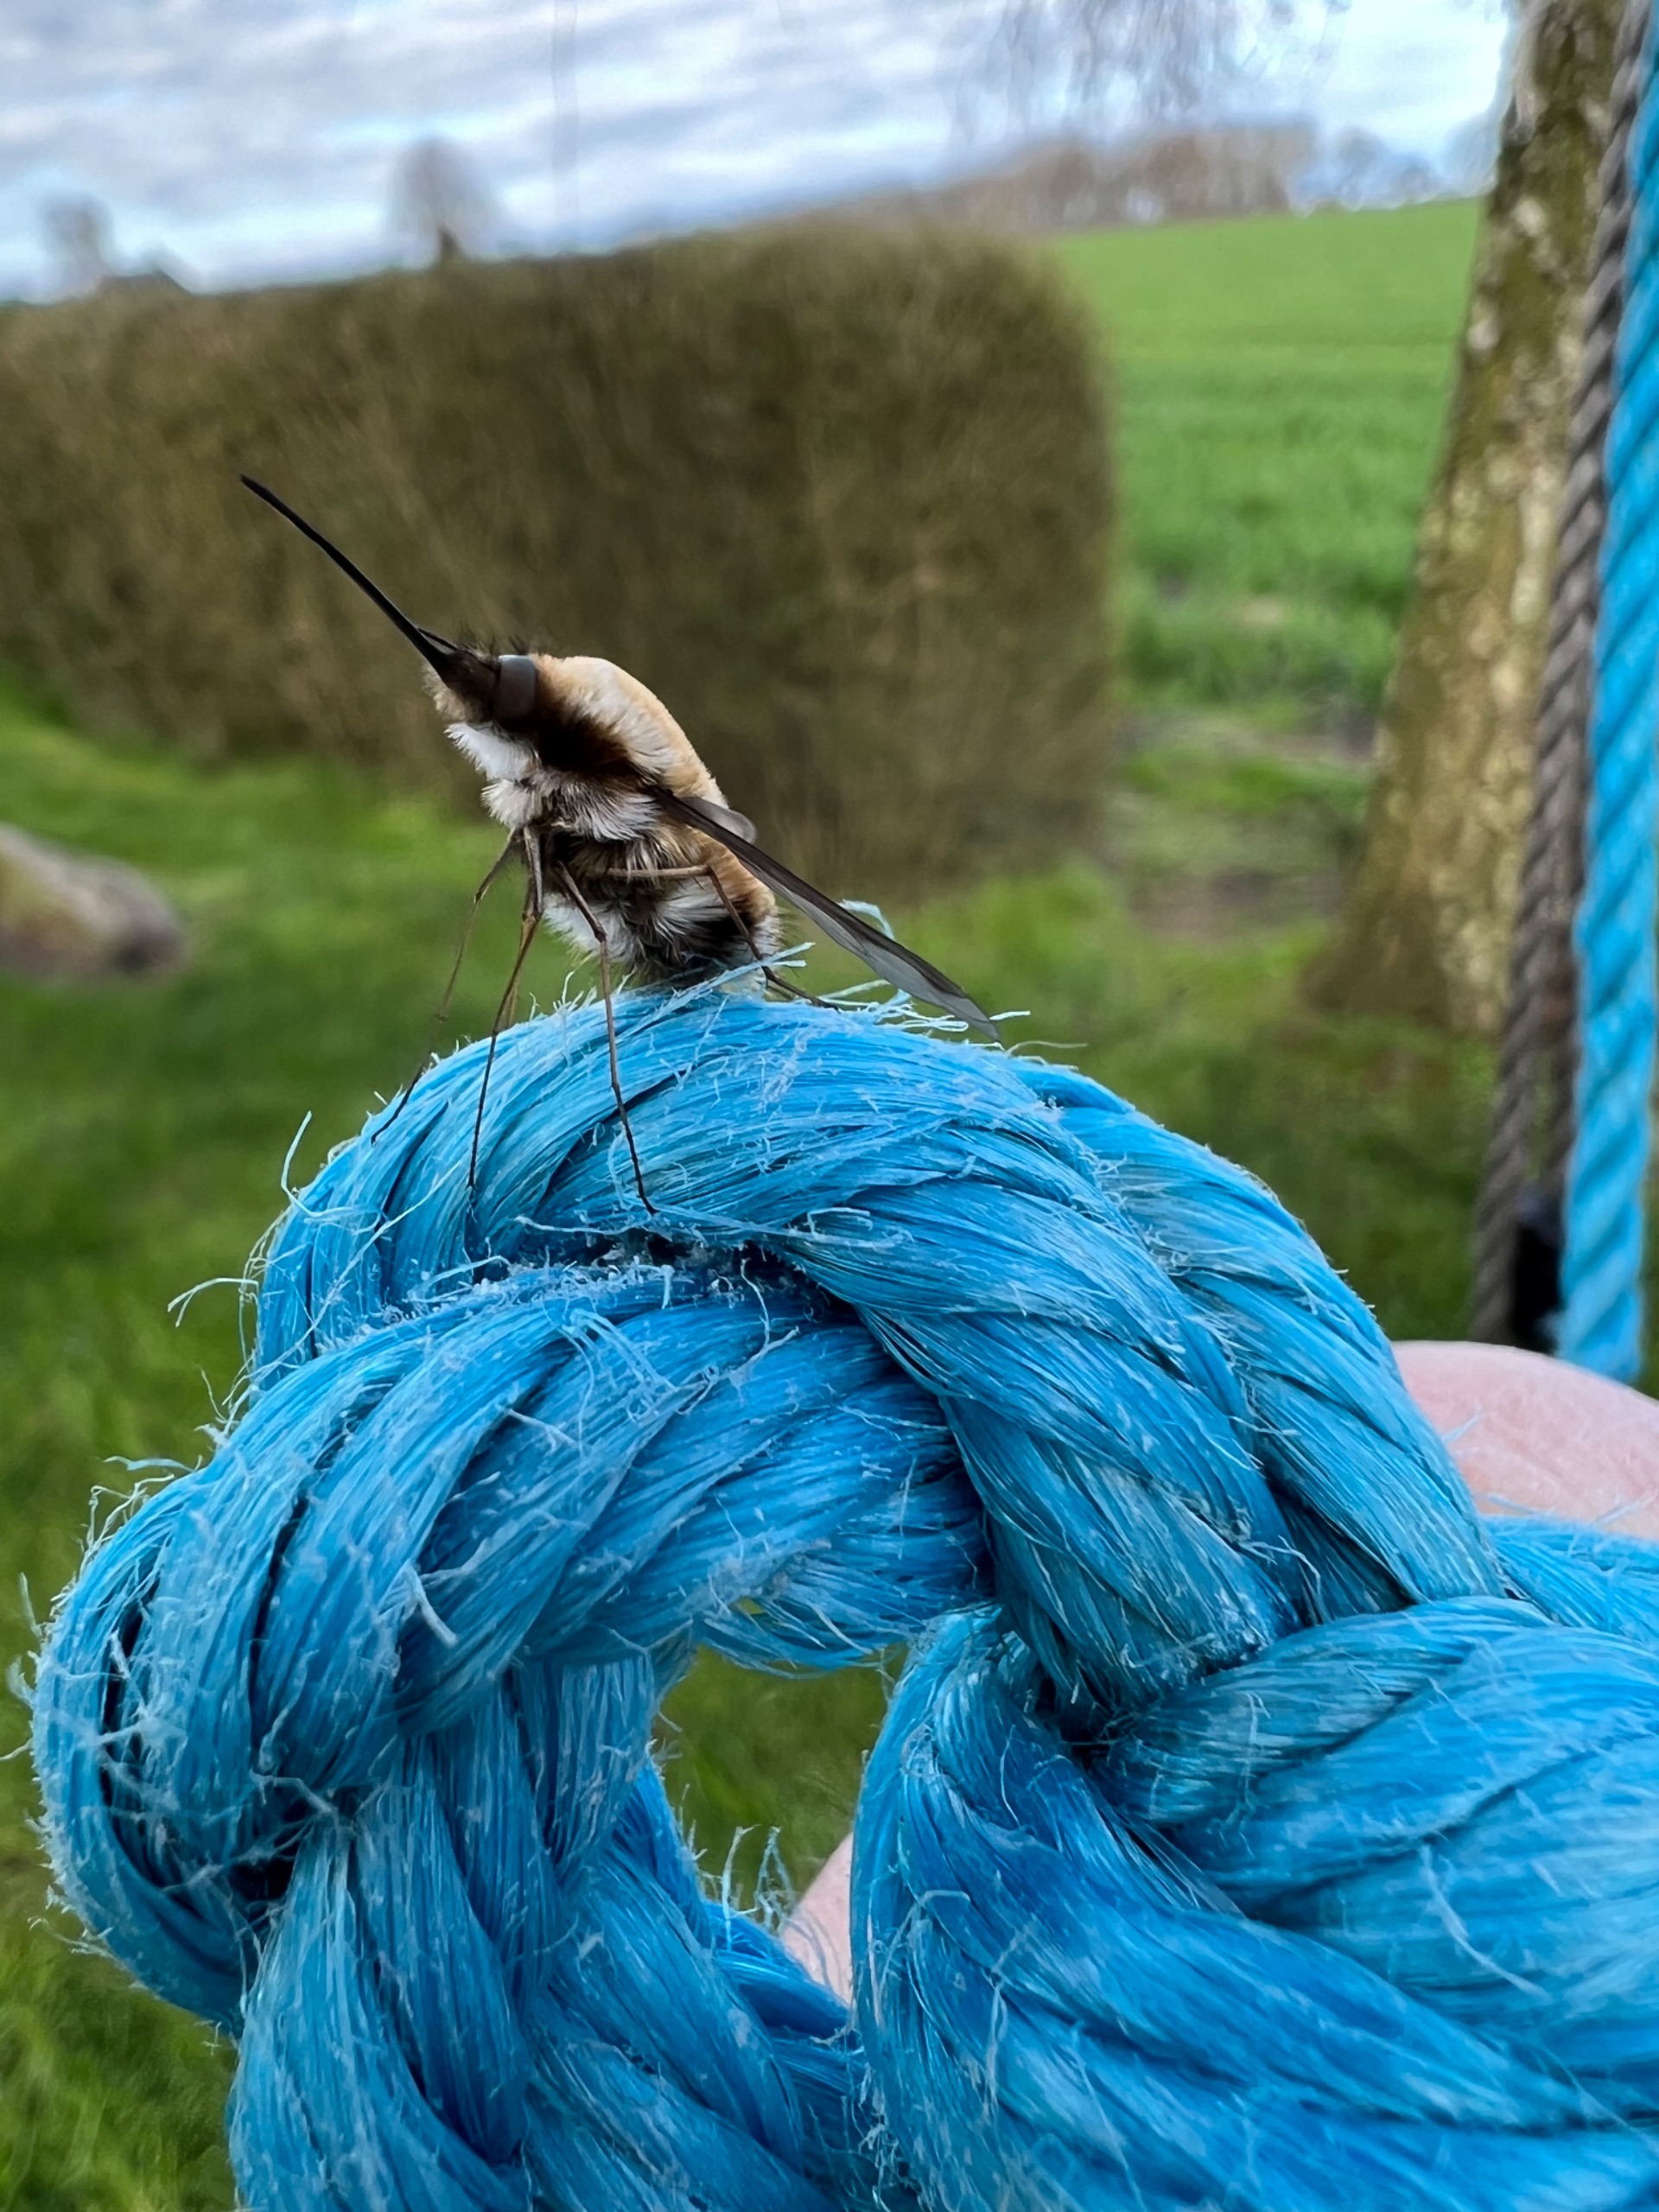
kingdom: Animalia
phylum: Arthropoda
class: Insecta
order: Diptera
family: Bombyliidae
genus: Bombylius
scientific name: Bombylius major
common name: Stor humleflue
